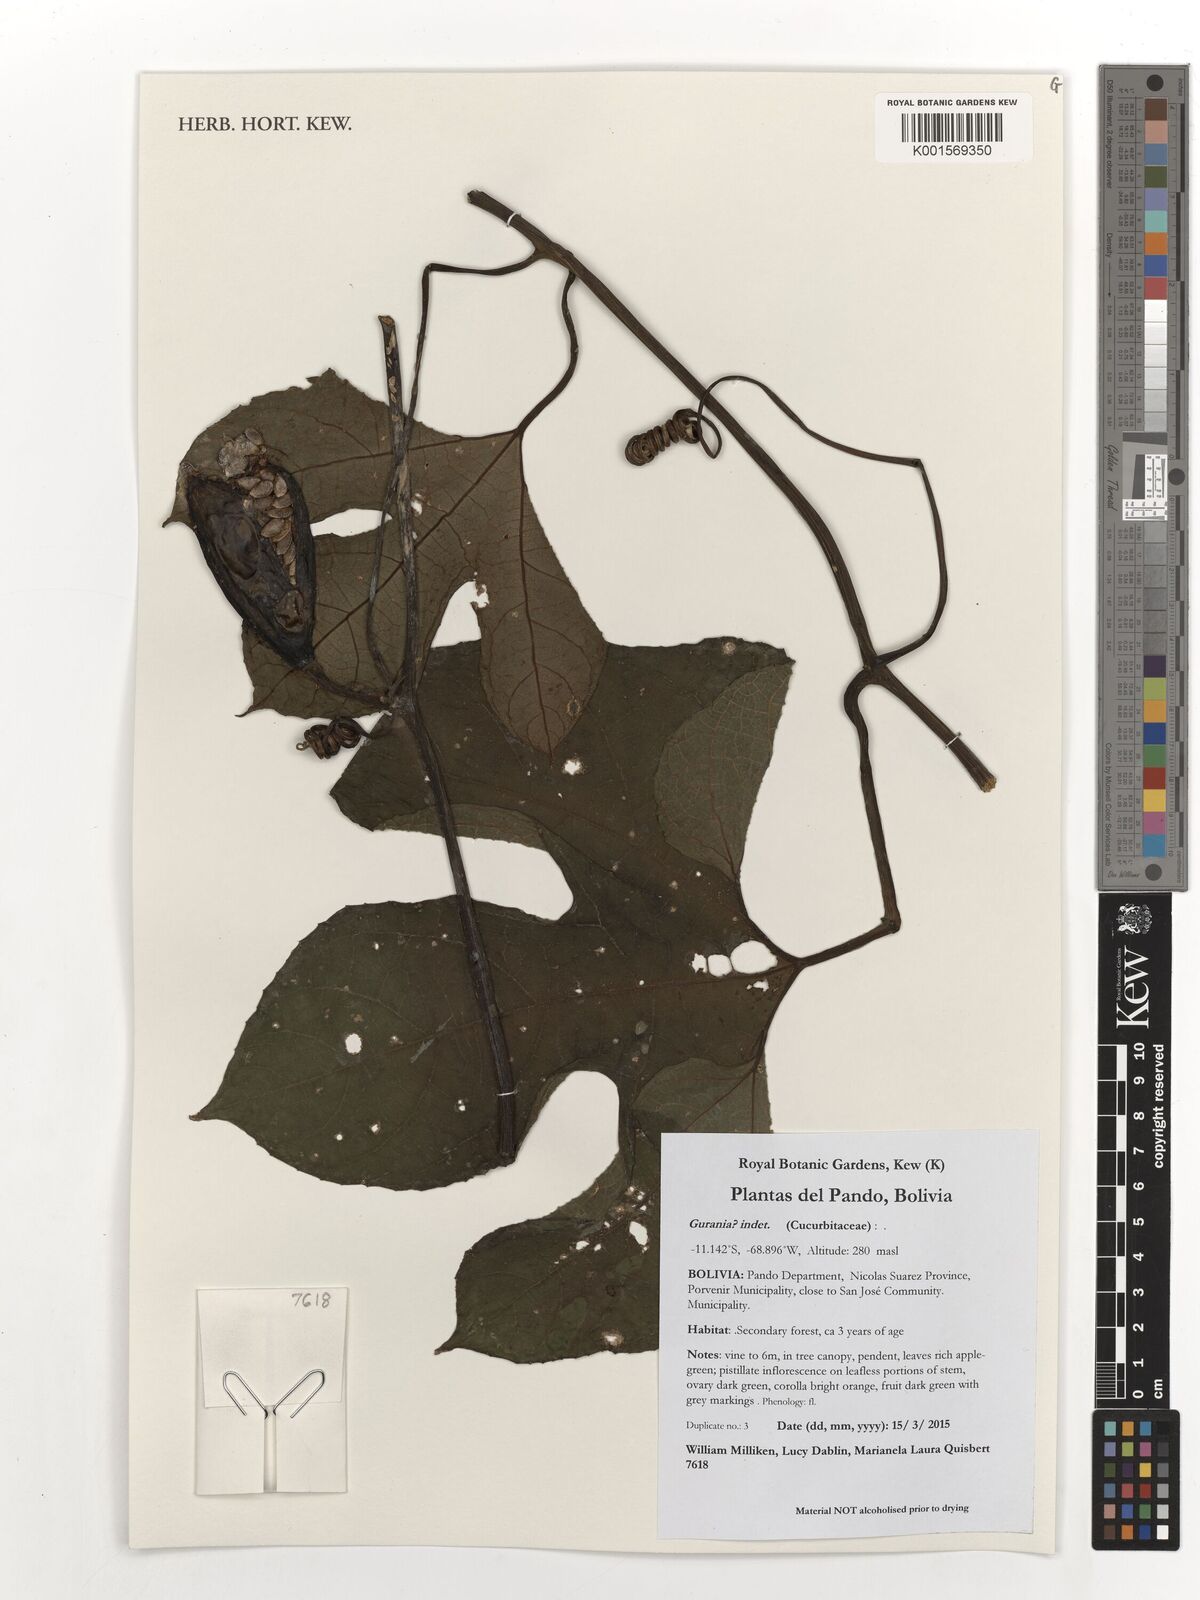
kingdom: Plantae
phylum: Tracheophyta
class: Magnoliopsida
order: Cucurbitales
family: Cucurbitaceae
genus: Gurania
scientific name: Gurania
